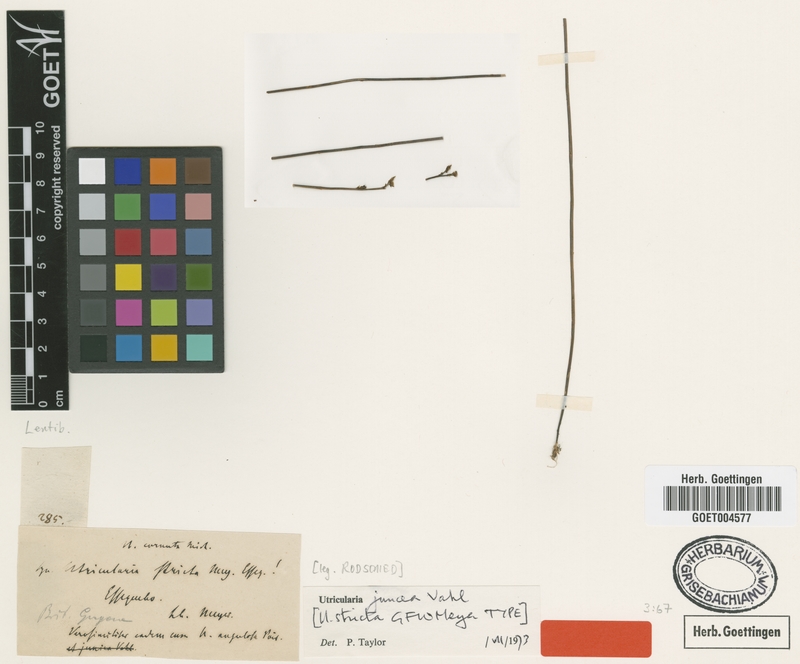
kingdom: Plantae
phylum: Tracheophyta
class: Magnoliopsida
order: Lamiales
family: Lentibulariaceae
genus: Utricularia
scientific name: Utricularia juncea
